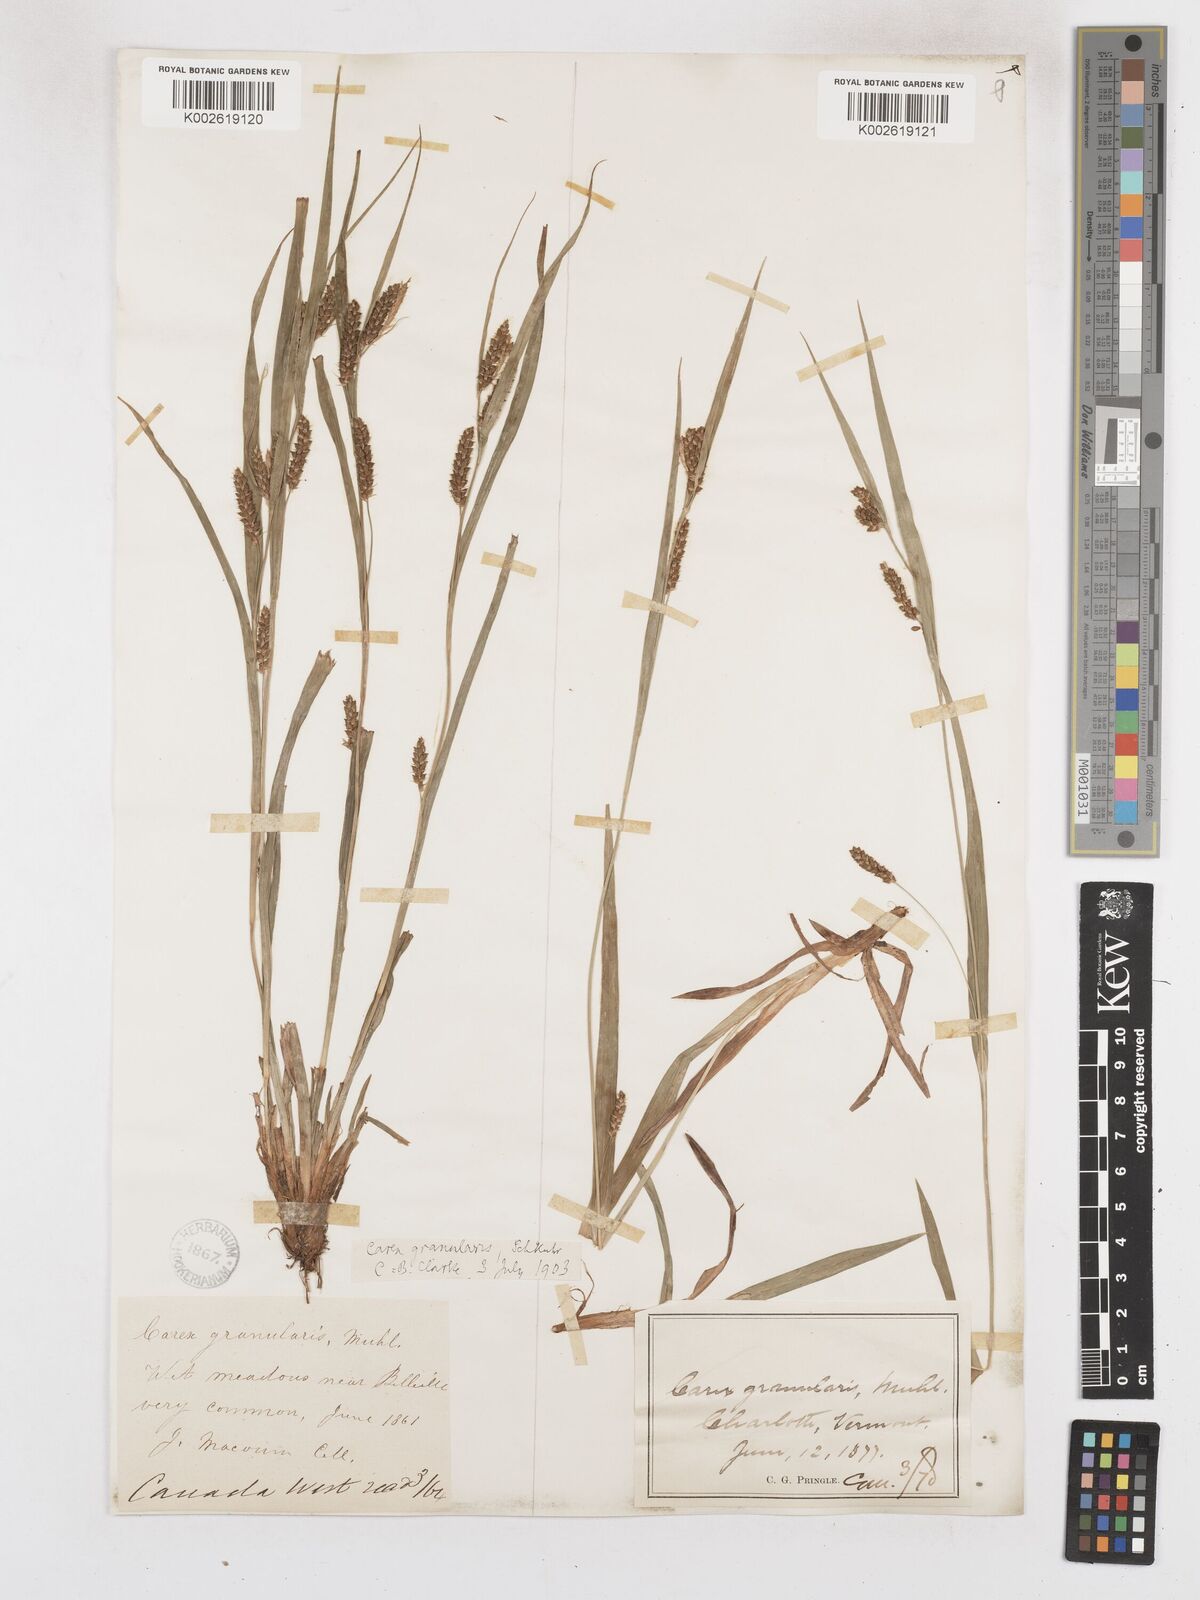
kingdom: Plantae
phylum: Tracheophyta
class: Liliopsida
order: Poales
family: Cyperaceae
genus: Carex
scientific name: Carex granularis
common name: Granular sedge
